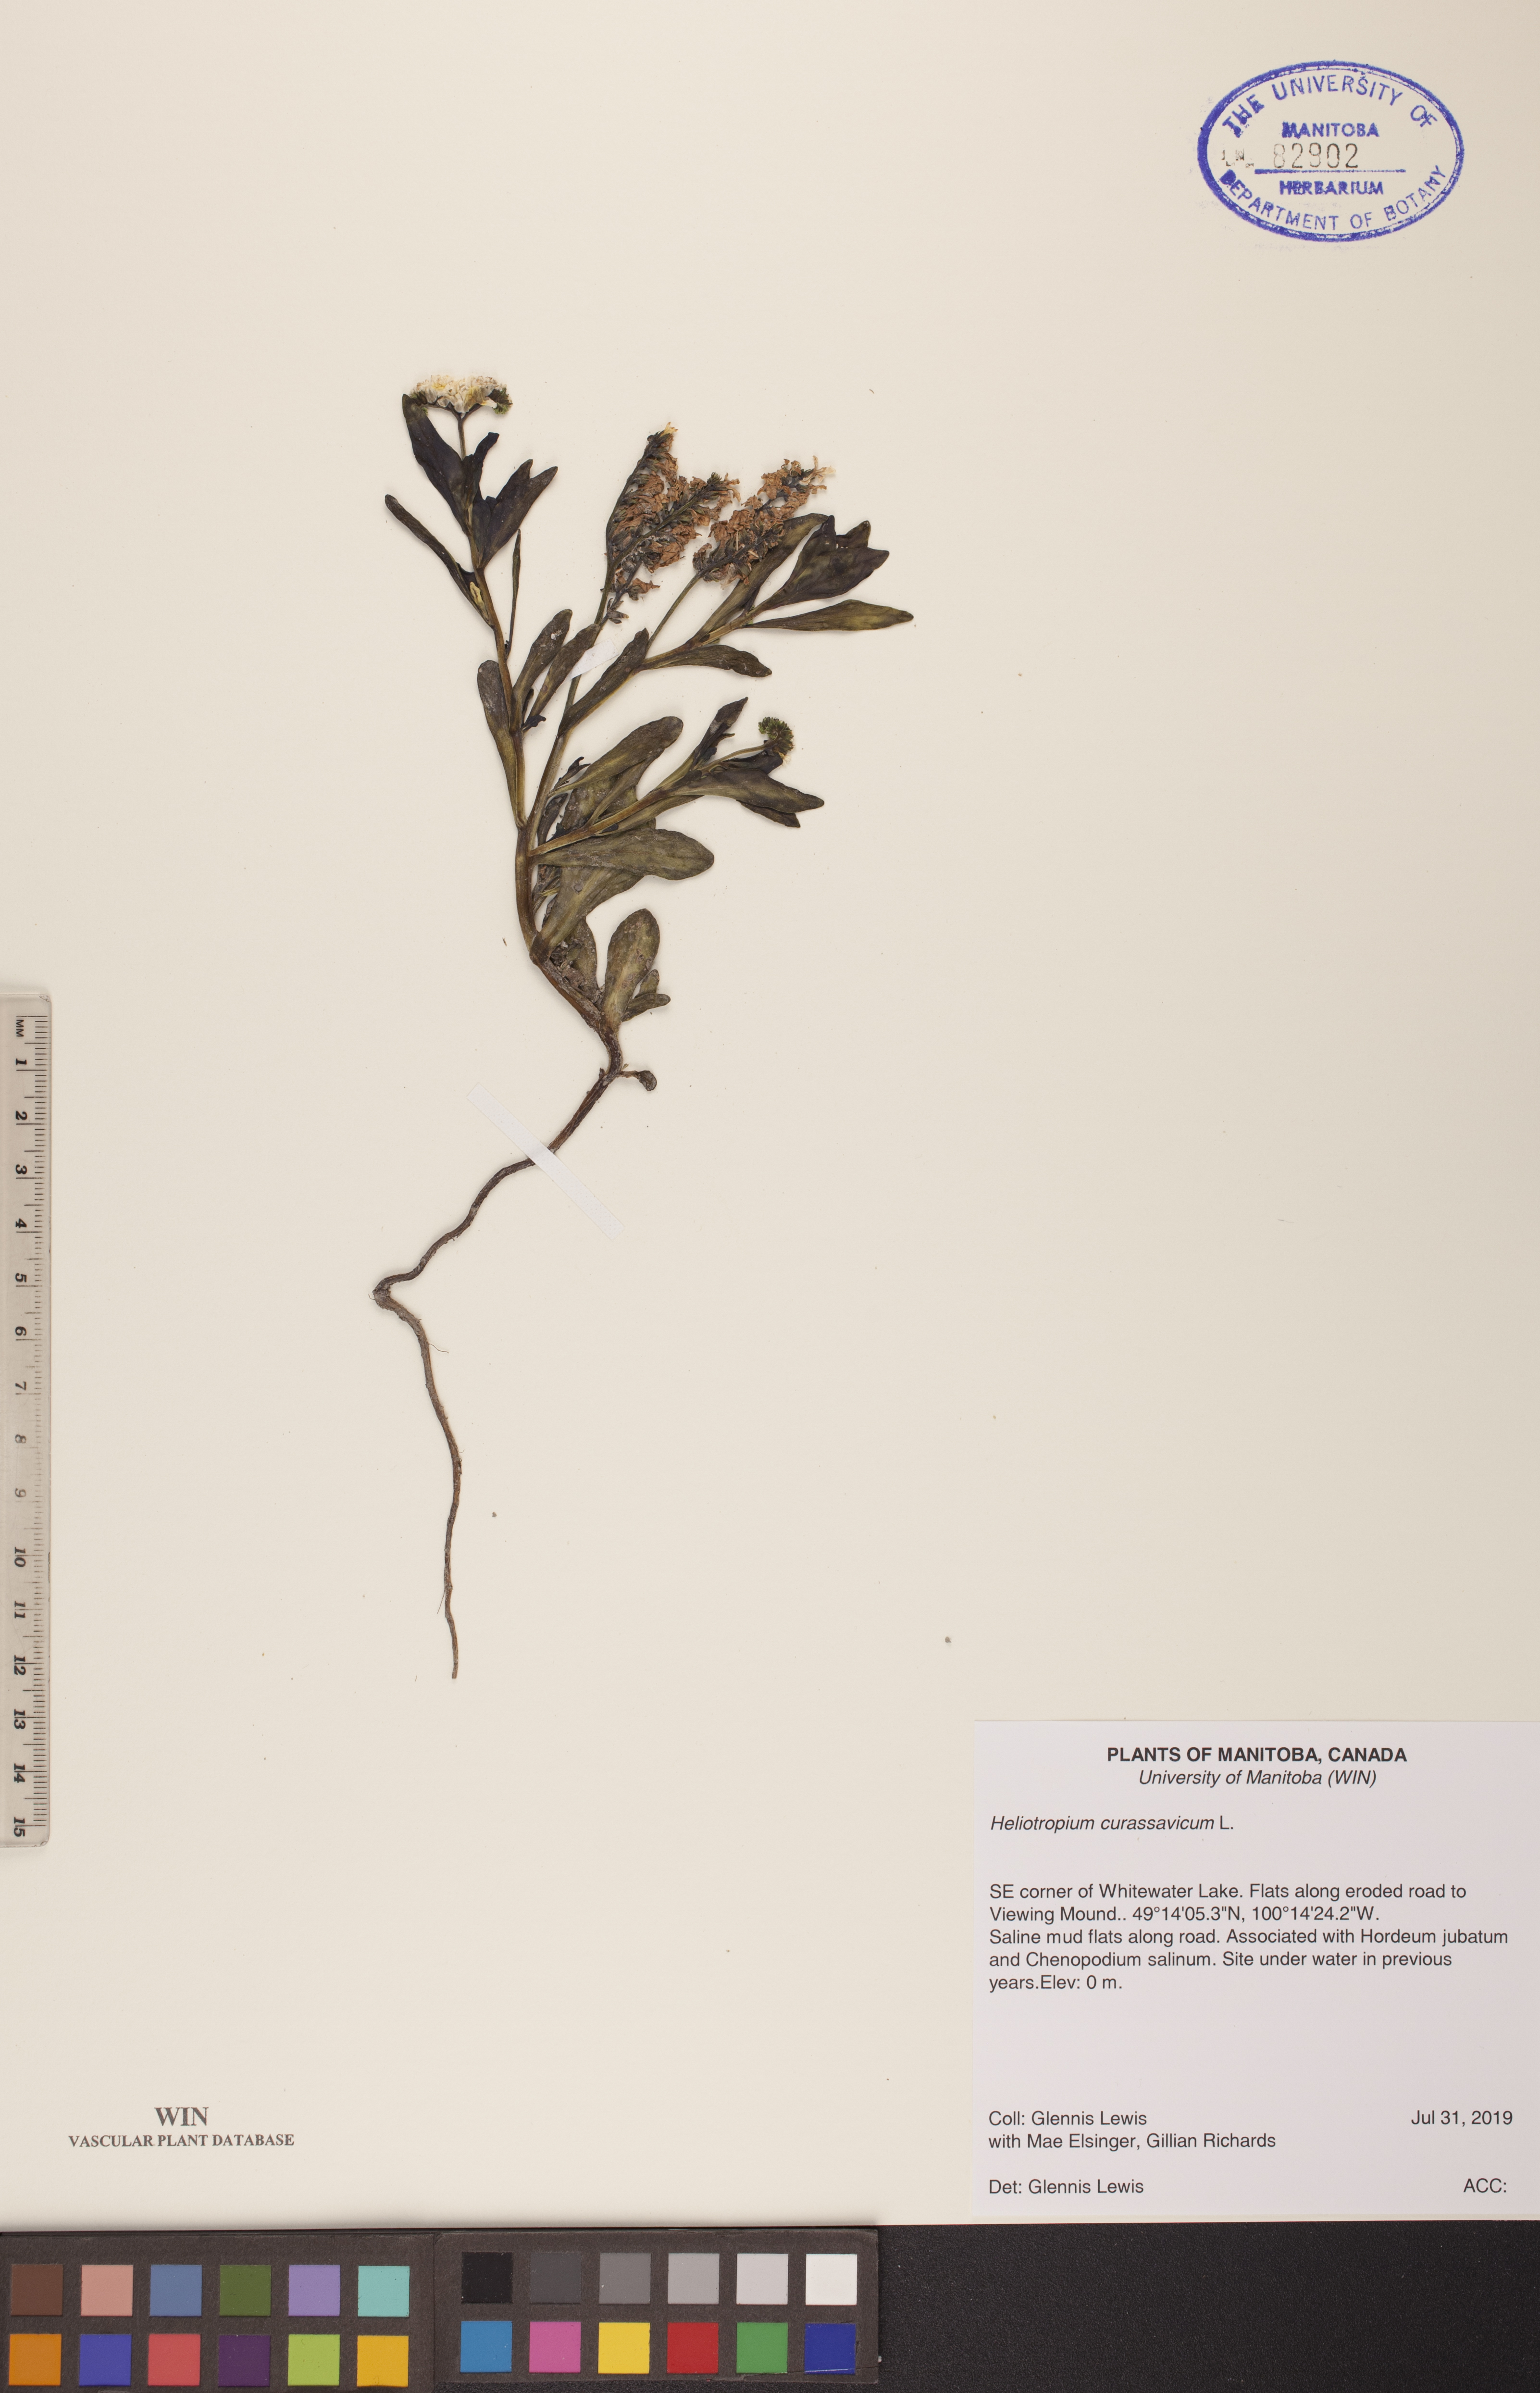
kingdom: Plantae
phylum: Tracheophyta
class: Magnoliopsida
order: Boraginales
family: Heliotropiaceae
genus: Heliotropium
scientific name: Heliotropium curassavicum
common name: Seaside heliotrope
